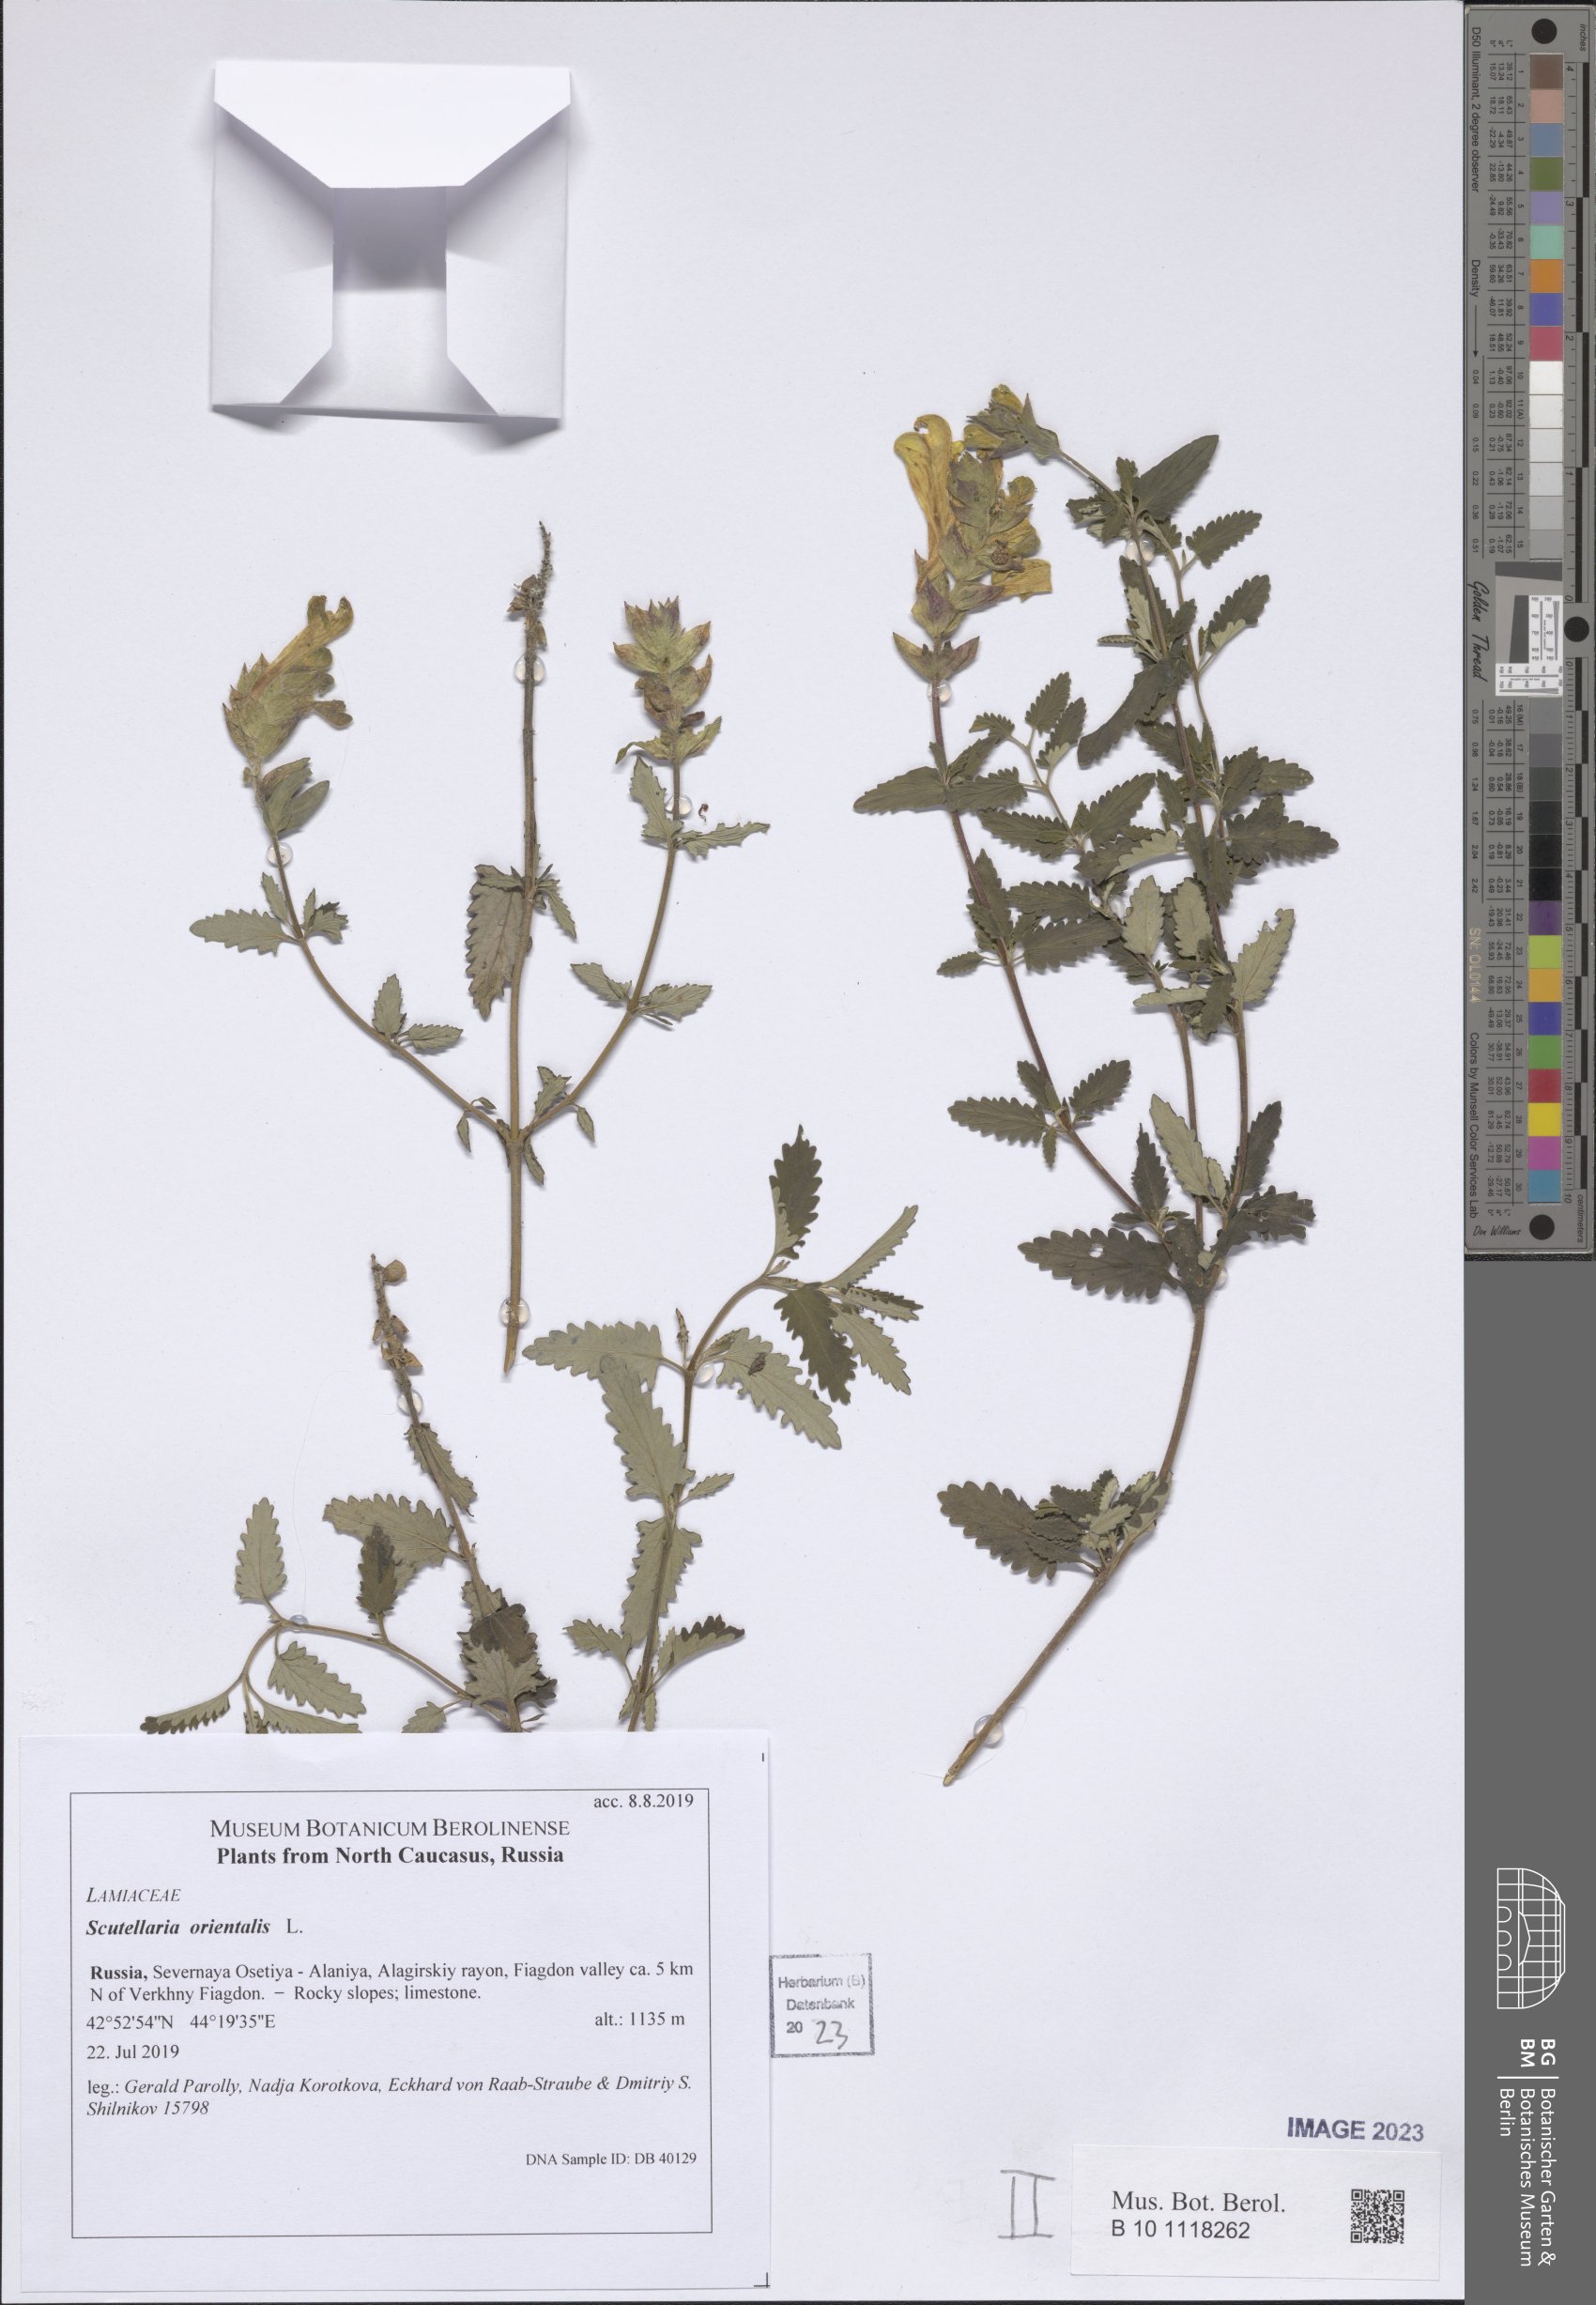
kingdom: Plantae
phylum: Tracheophyta
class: Magnoliopsida
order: Lamiales
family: Lamiaceae
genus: Scutellaria
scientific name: Scutellaria orientalis
